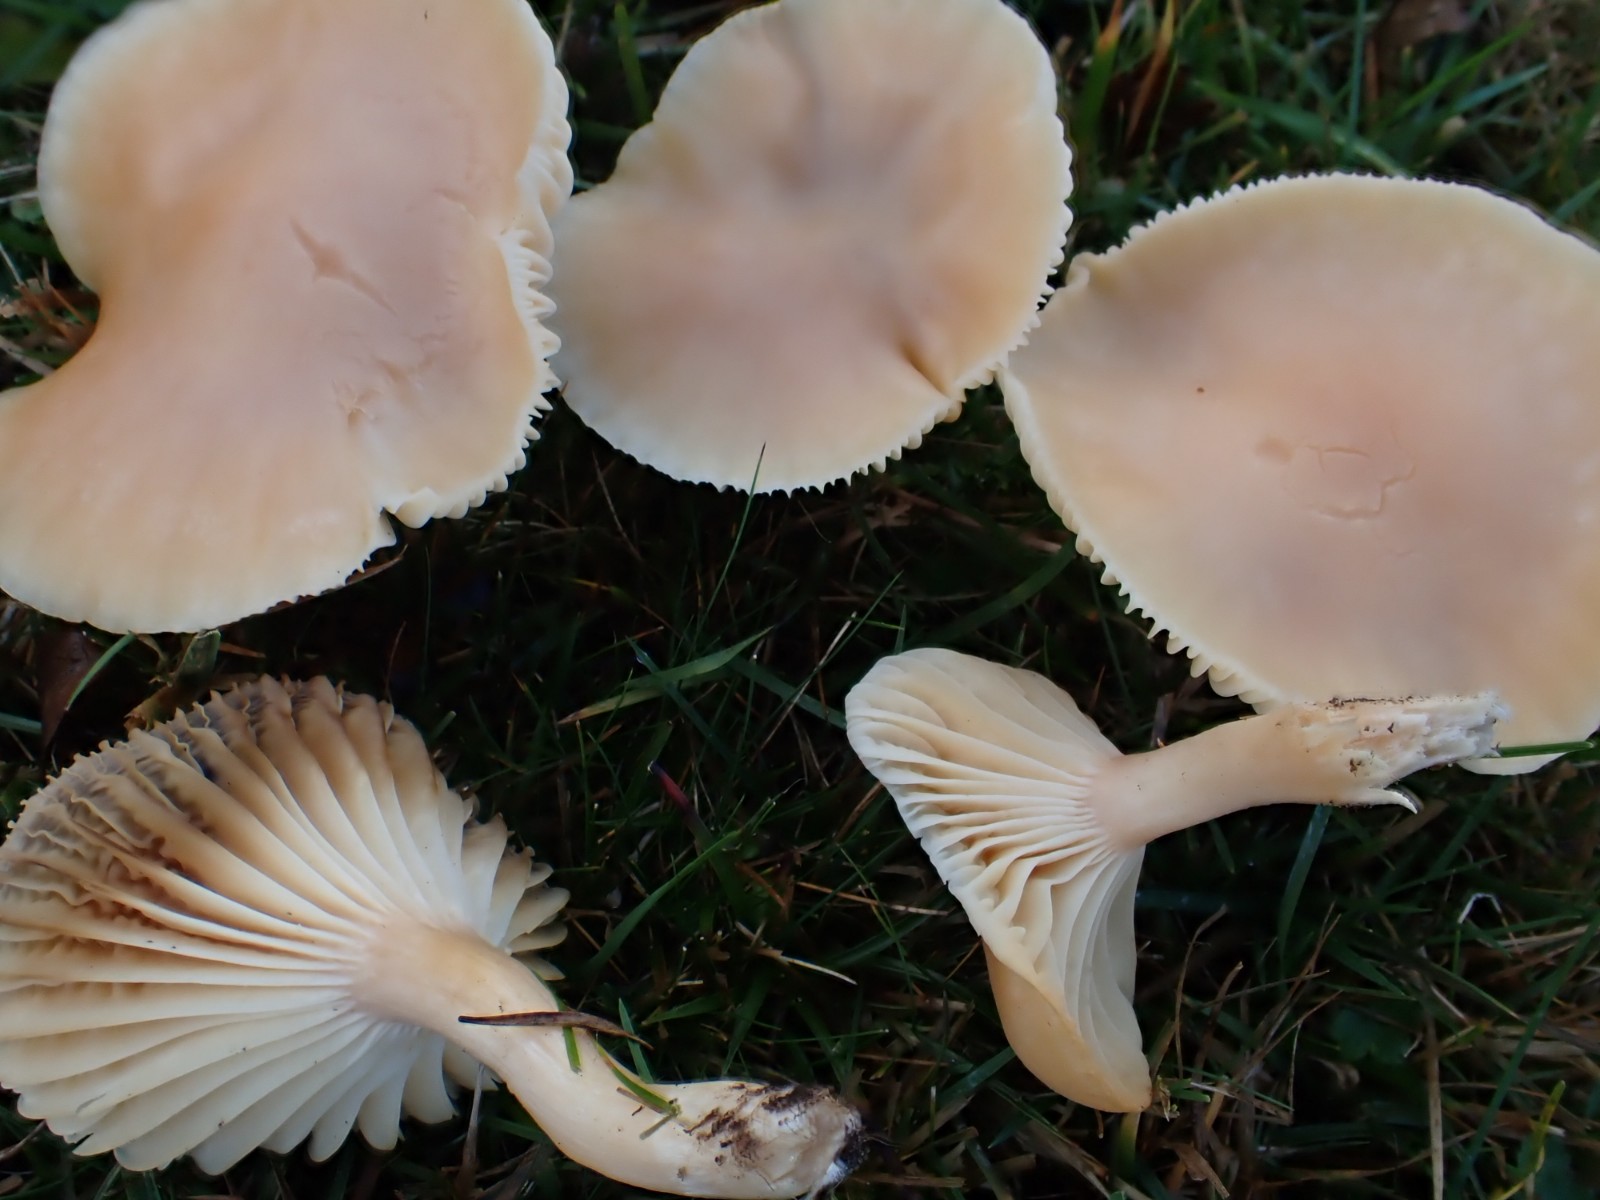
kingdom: Fungi
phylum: Basidiomycota
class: Agaricomycetes
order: Agaricales
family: Hygrophoraceae
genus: Cuphophyllus
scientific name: Cuphophyllus pratensis
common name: eng-vokshat
